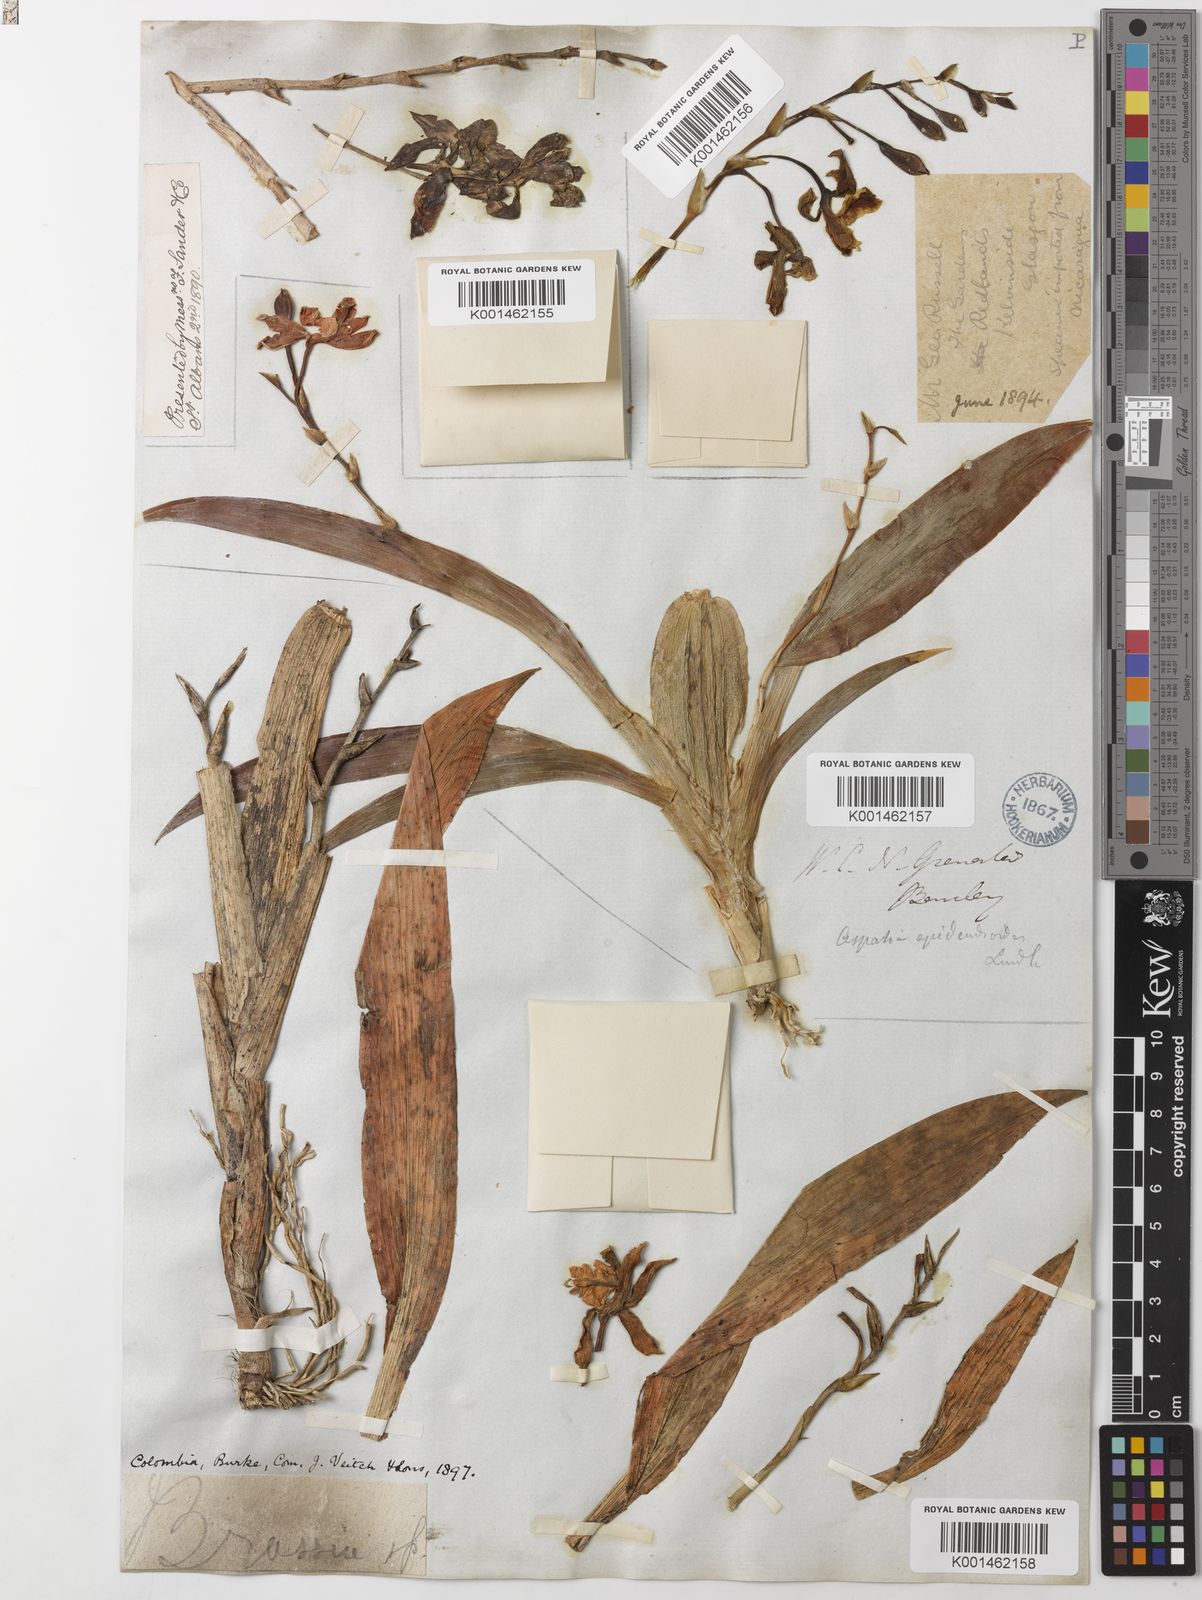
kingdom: Plantae
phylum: Tracheophyta
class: Liliopsida
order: Asparagales
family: Orchidaceae
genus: Aspasia
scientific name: Aspasia epidendroides
